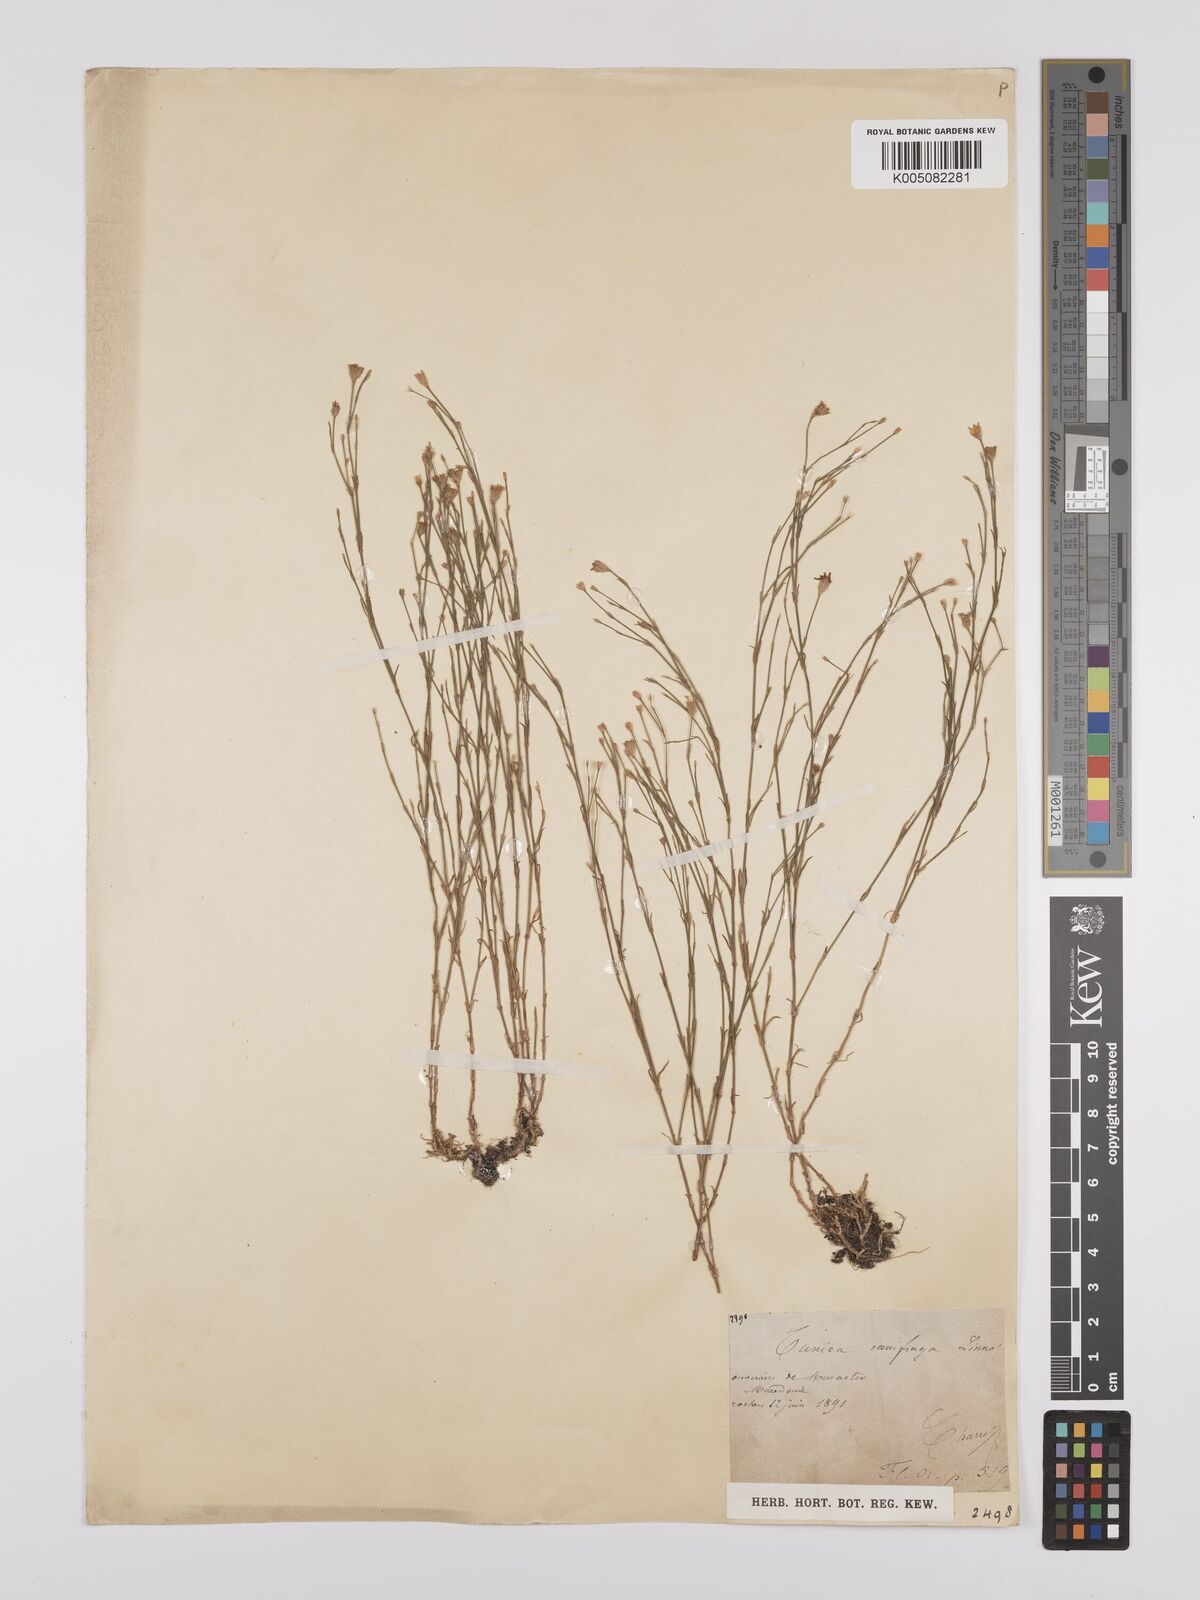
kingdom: Plantae
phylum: Tracheophyta
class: Magnoliopsida
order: Caryophyllales
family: Caryophyllaceae
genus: Petrorhagia
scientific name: Petrorhagia saxifraga
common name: Tunicflower
